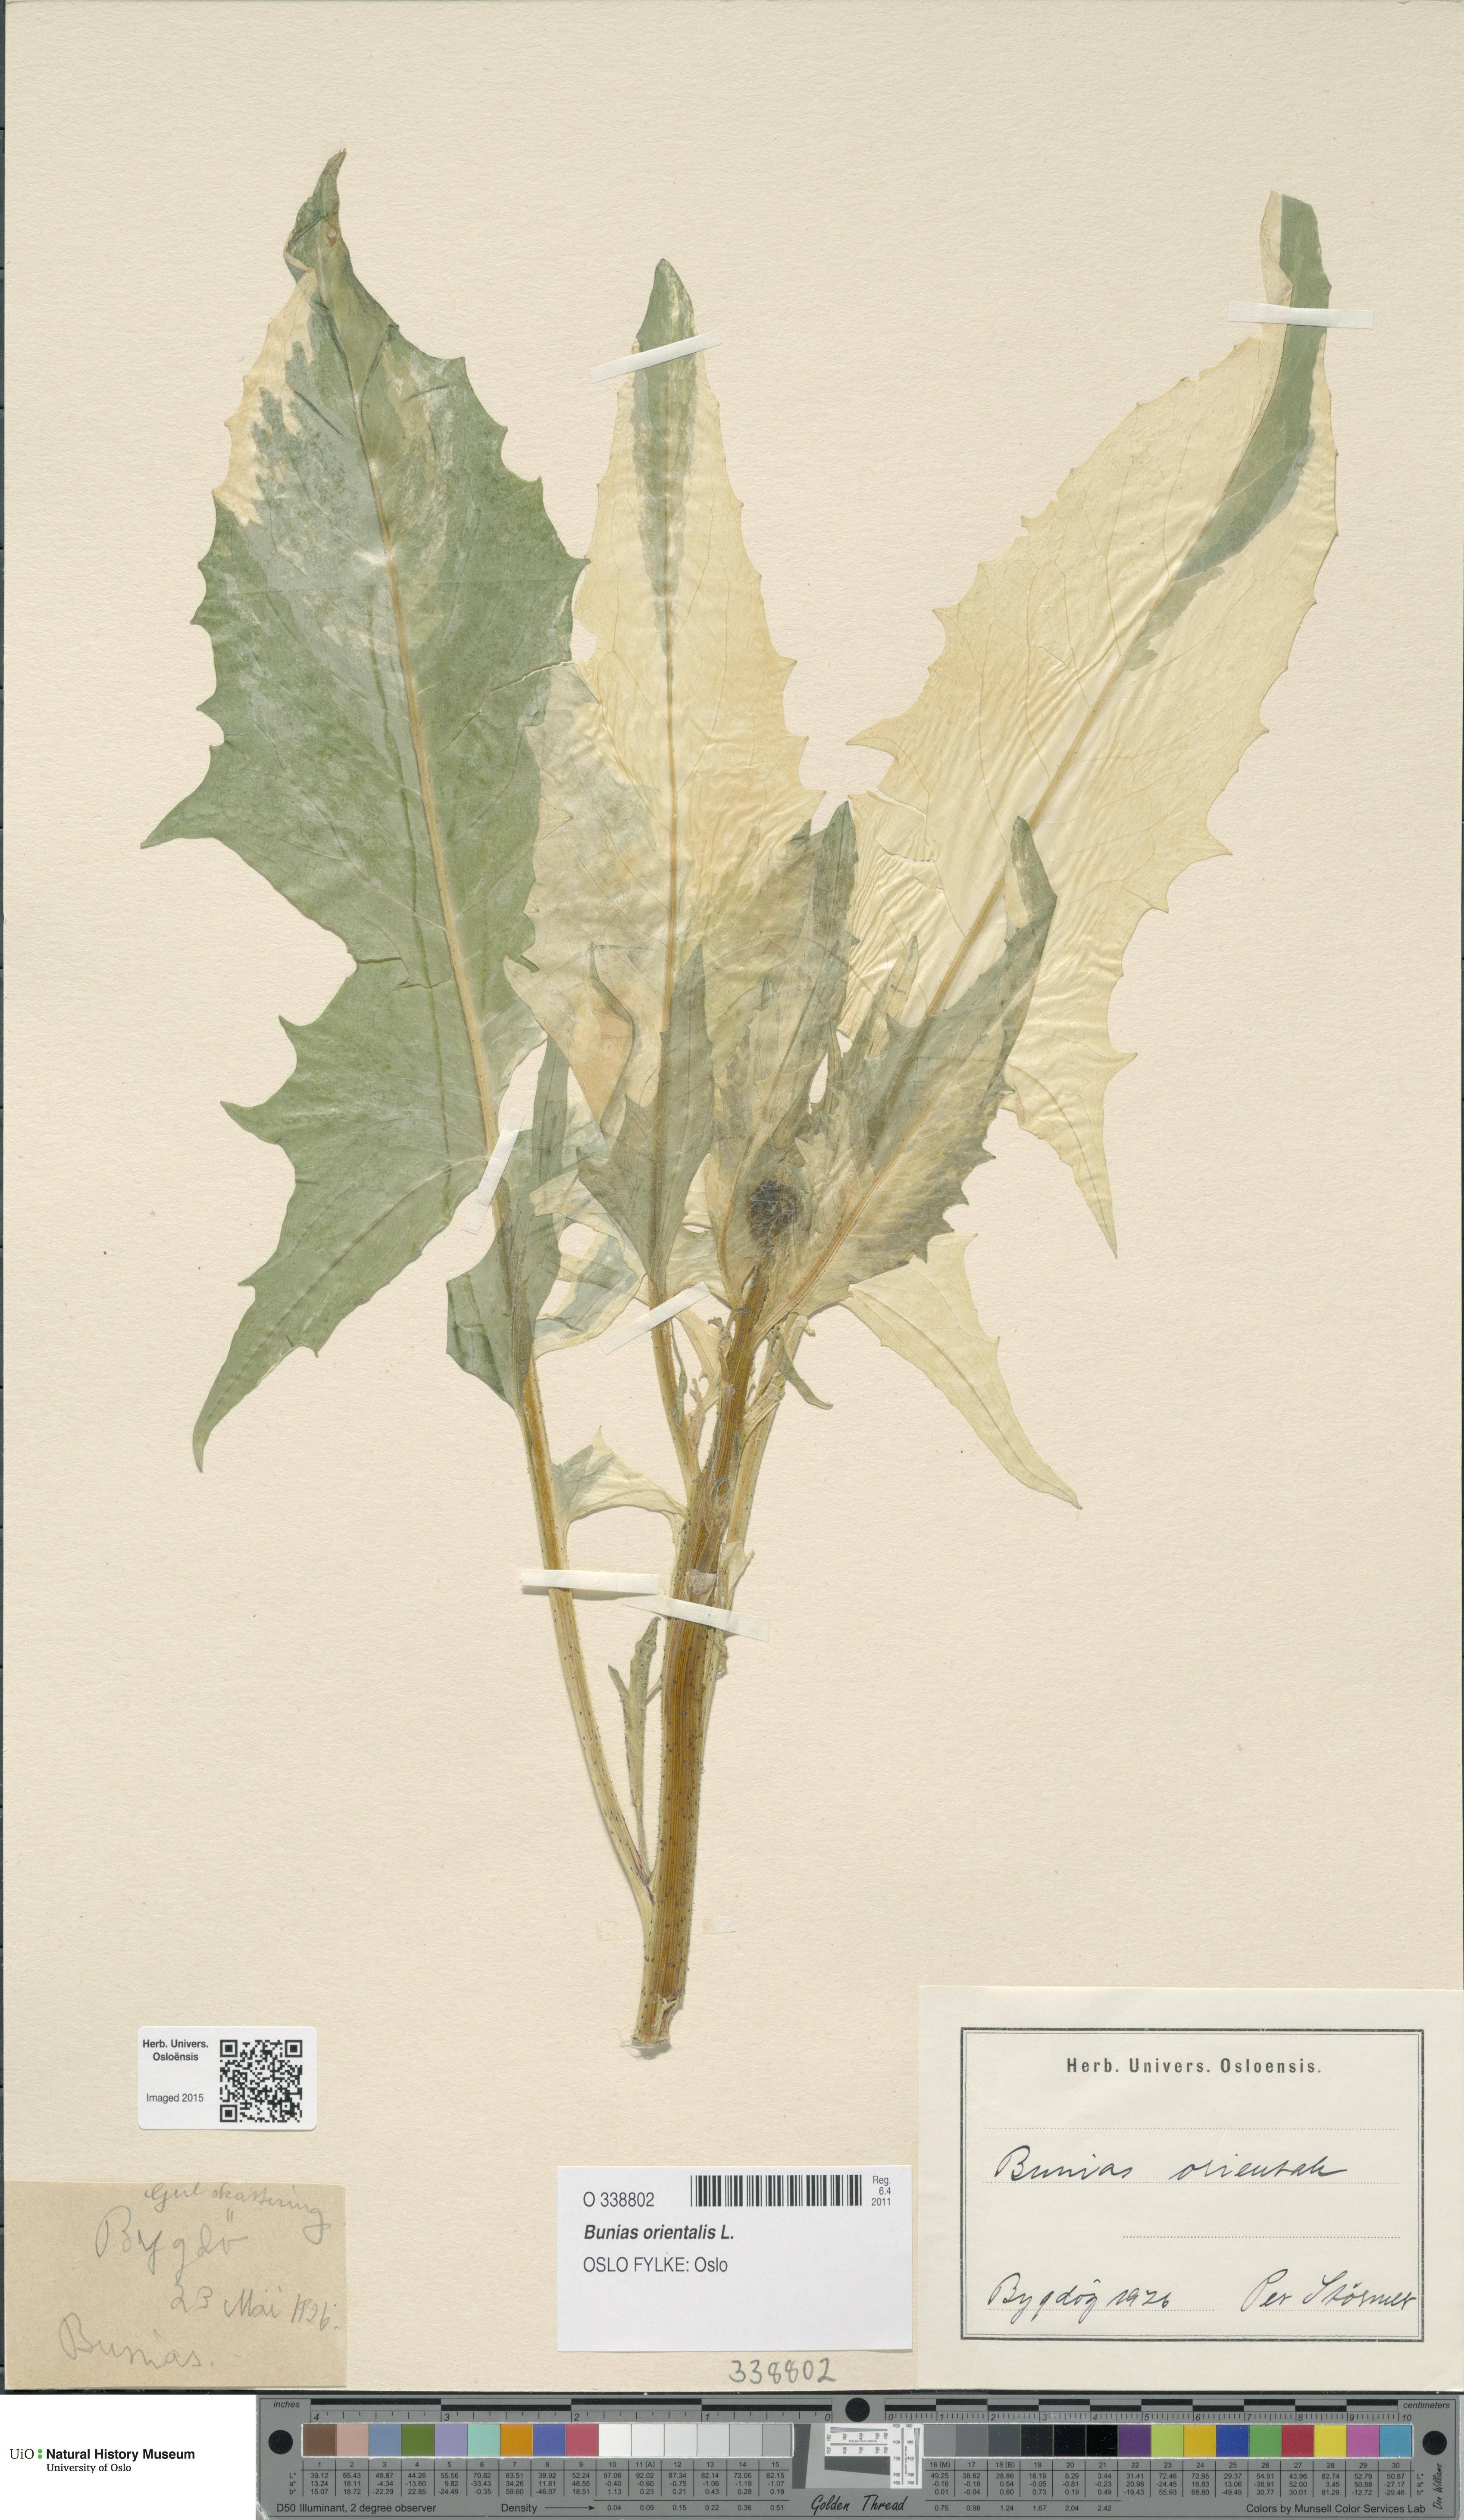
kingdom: Plantae
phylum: Tracheophyta
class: Magnoliopsida
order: Brassicales
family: Brassicaceae
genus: Bunias
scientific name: Bunias orientalis
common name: Warty-cabbage
